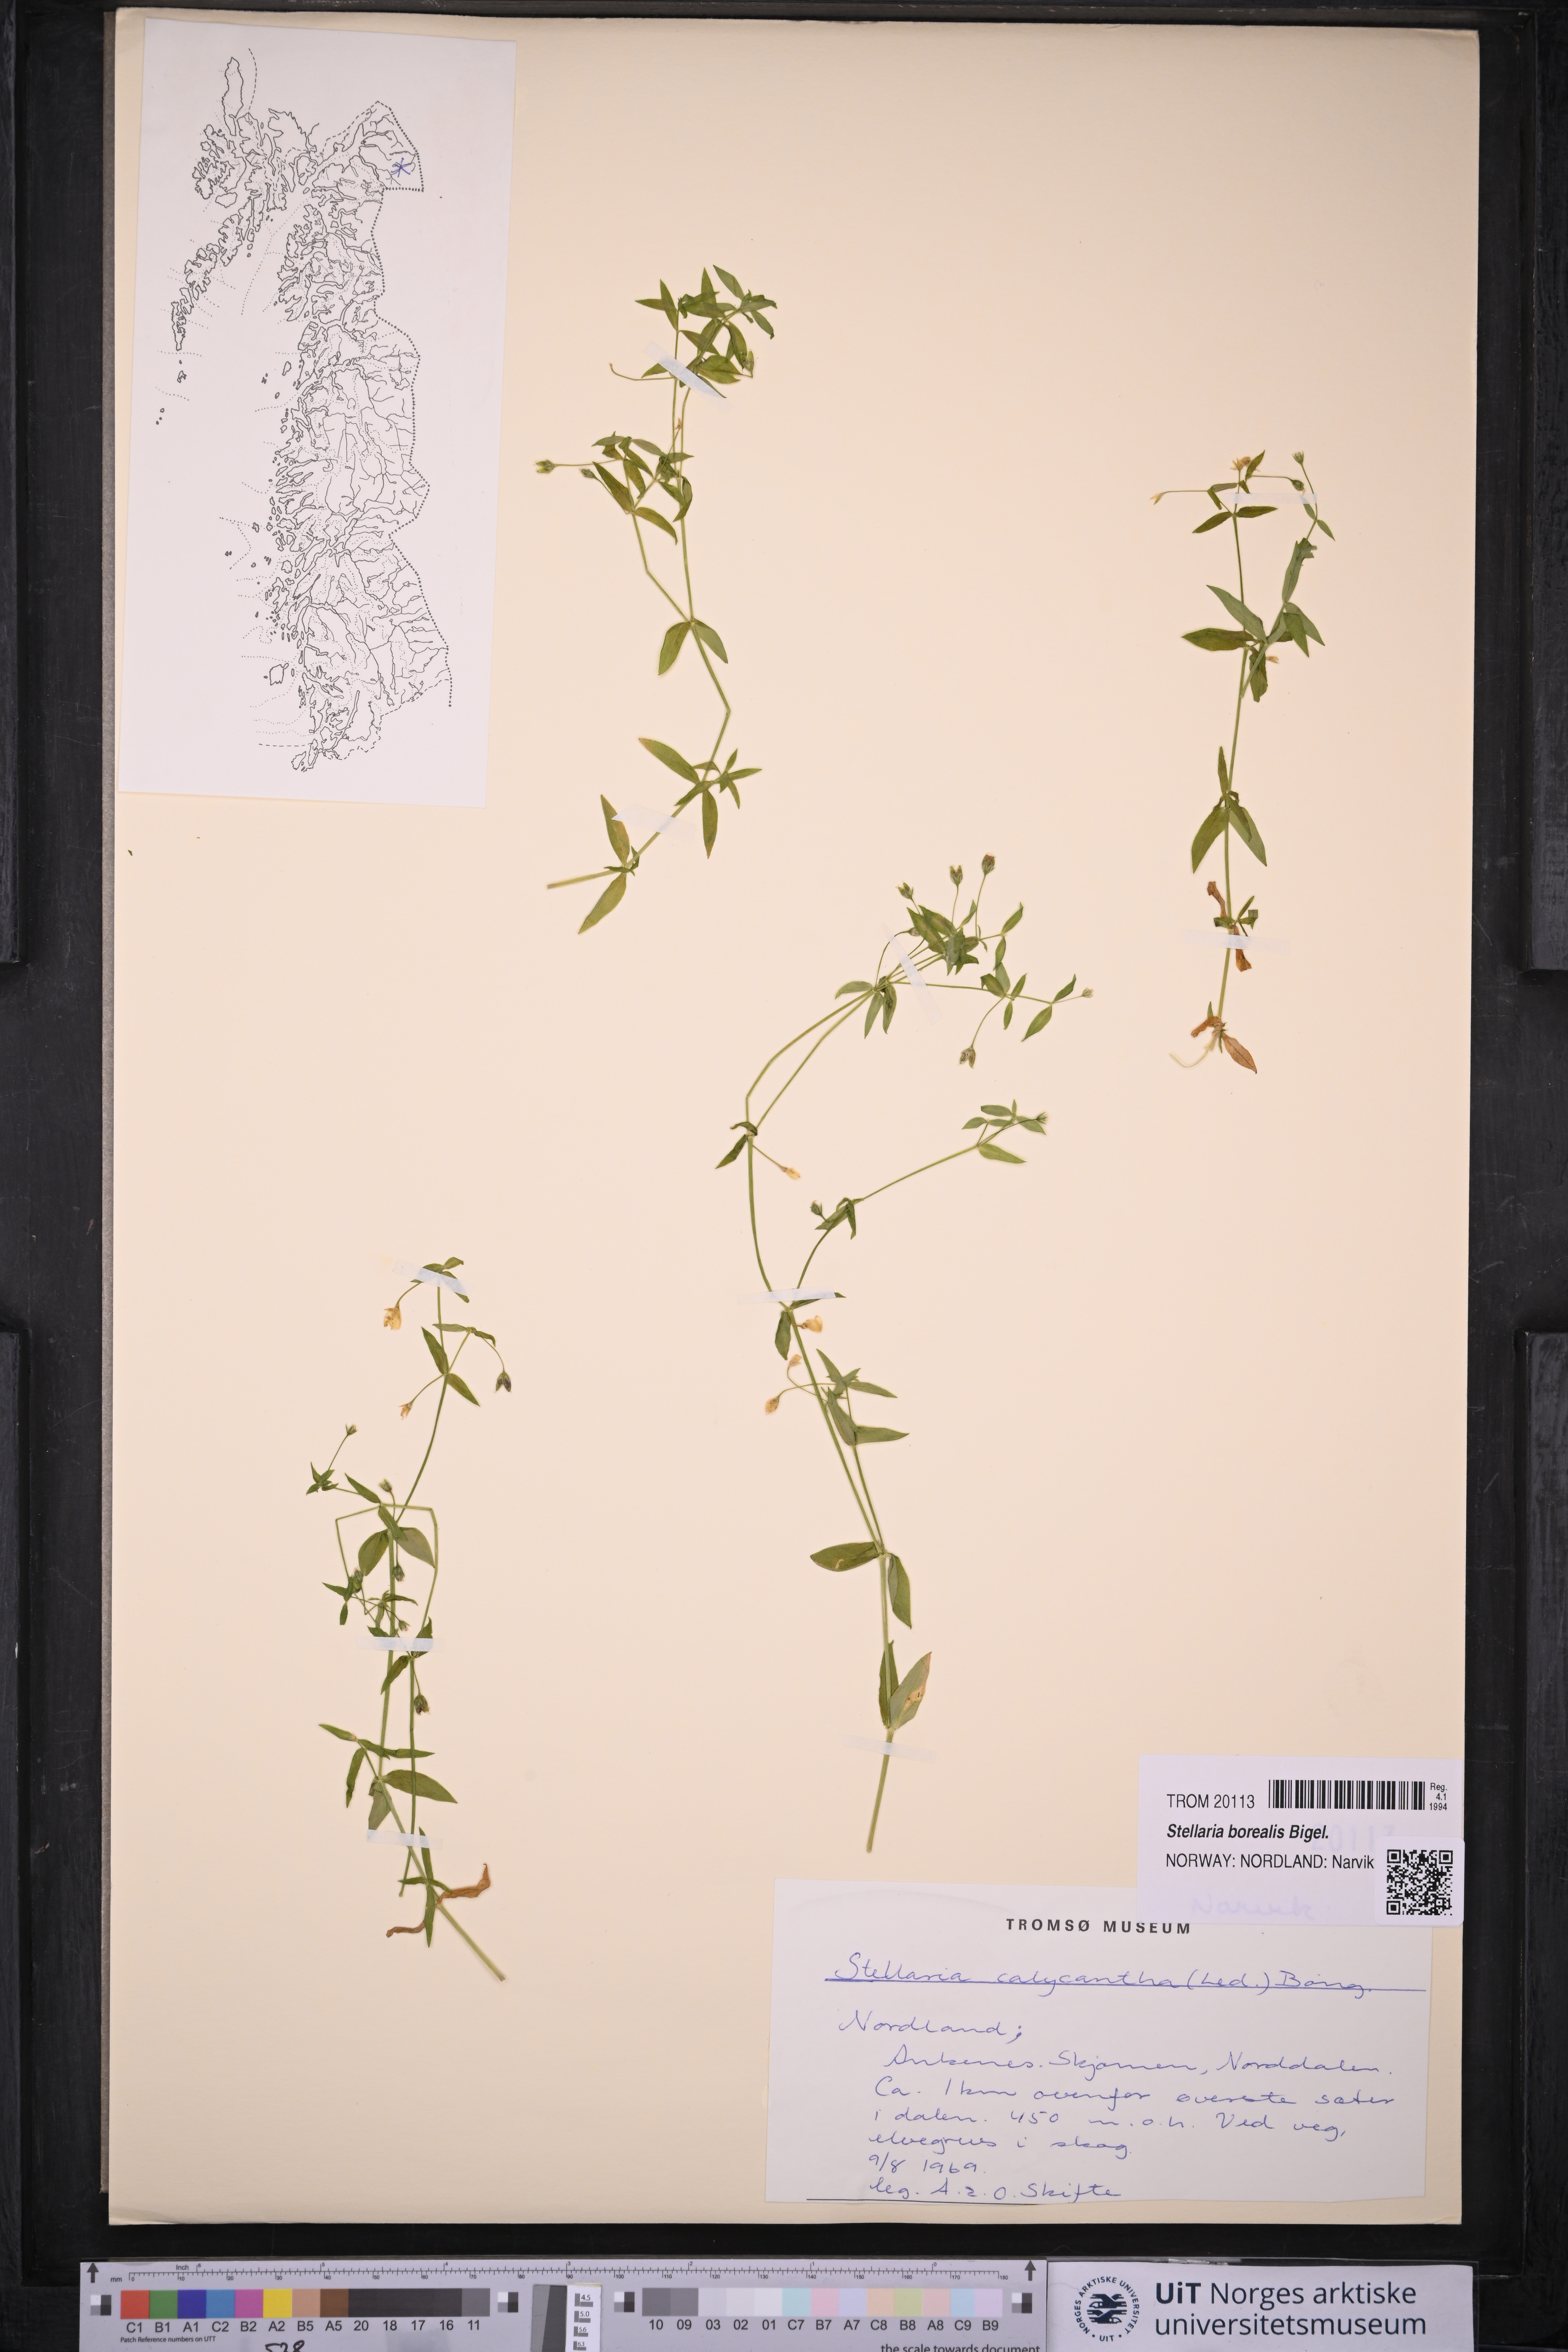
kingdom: Plantae
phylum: Tracheophyta
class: Magnoliopsida
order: Caryophyllales
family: Caryophyllaceae
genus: Stellaria
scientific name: Stellaria borealis
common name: Boreal starwort
